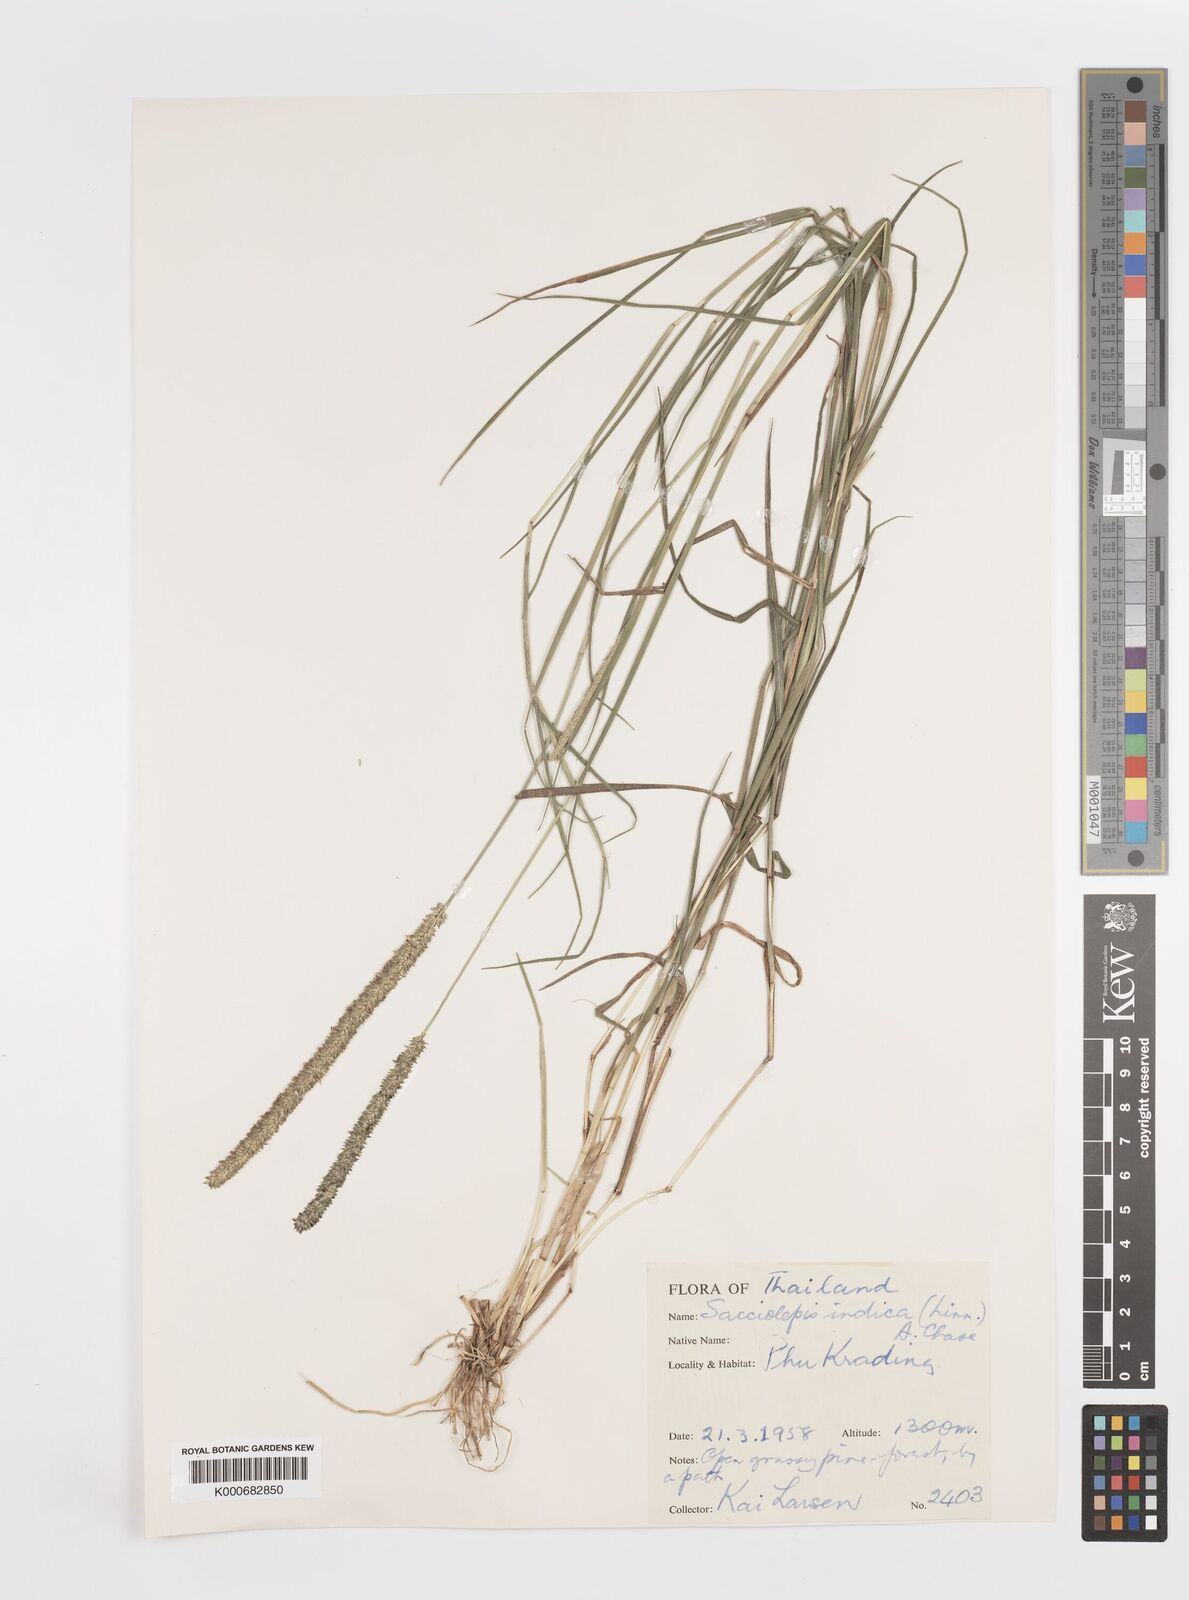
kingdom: Plantae
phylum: Tracheophyta
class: Liliopsida
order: Poales
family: Poaceae
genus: Sacciolepis
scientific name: Sacciolepis indica
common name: Glenwoodgrass
